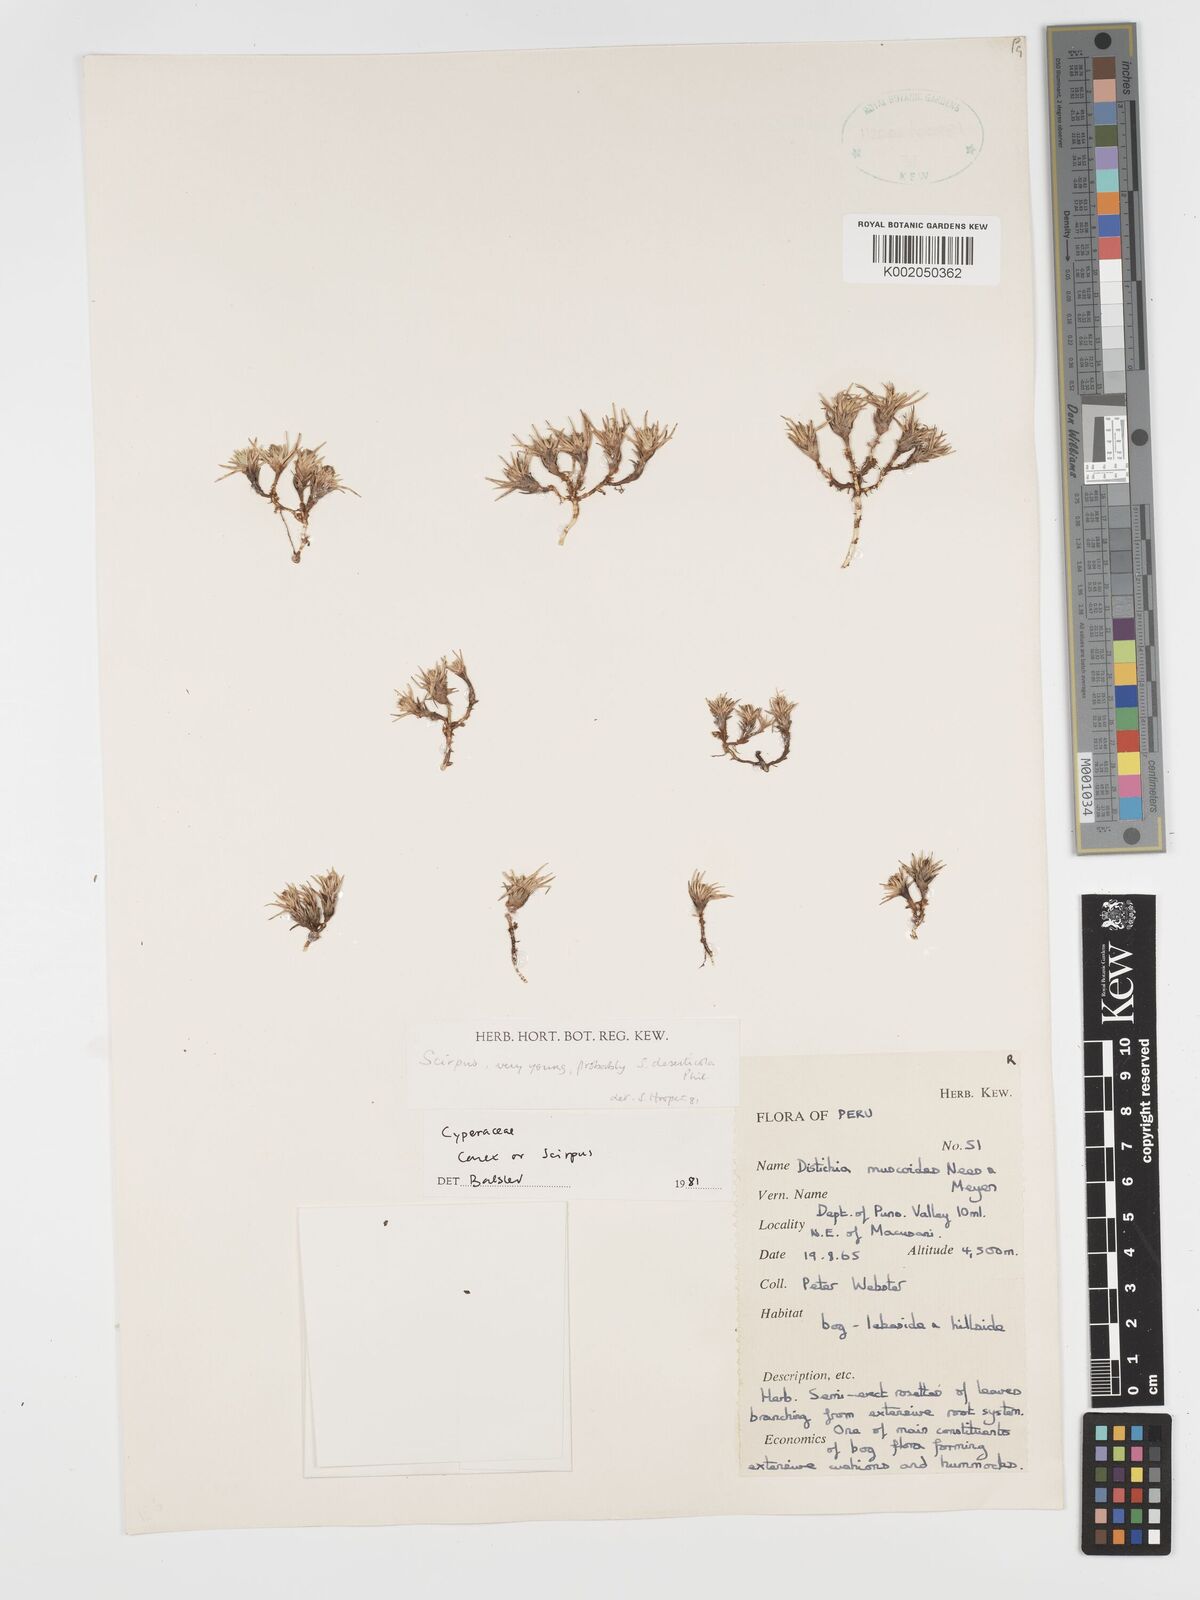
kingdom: Plantae
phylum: Tracheophyta
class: Liliopsida
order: Poales
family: Cyperaceae
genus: Phylloscirpus
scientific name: Phylloscirpus deserticola
